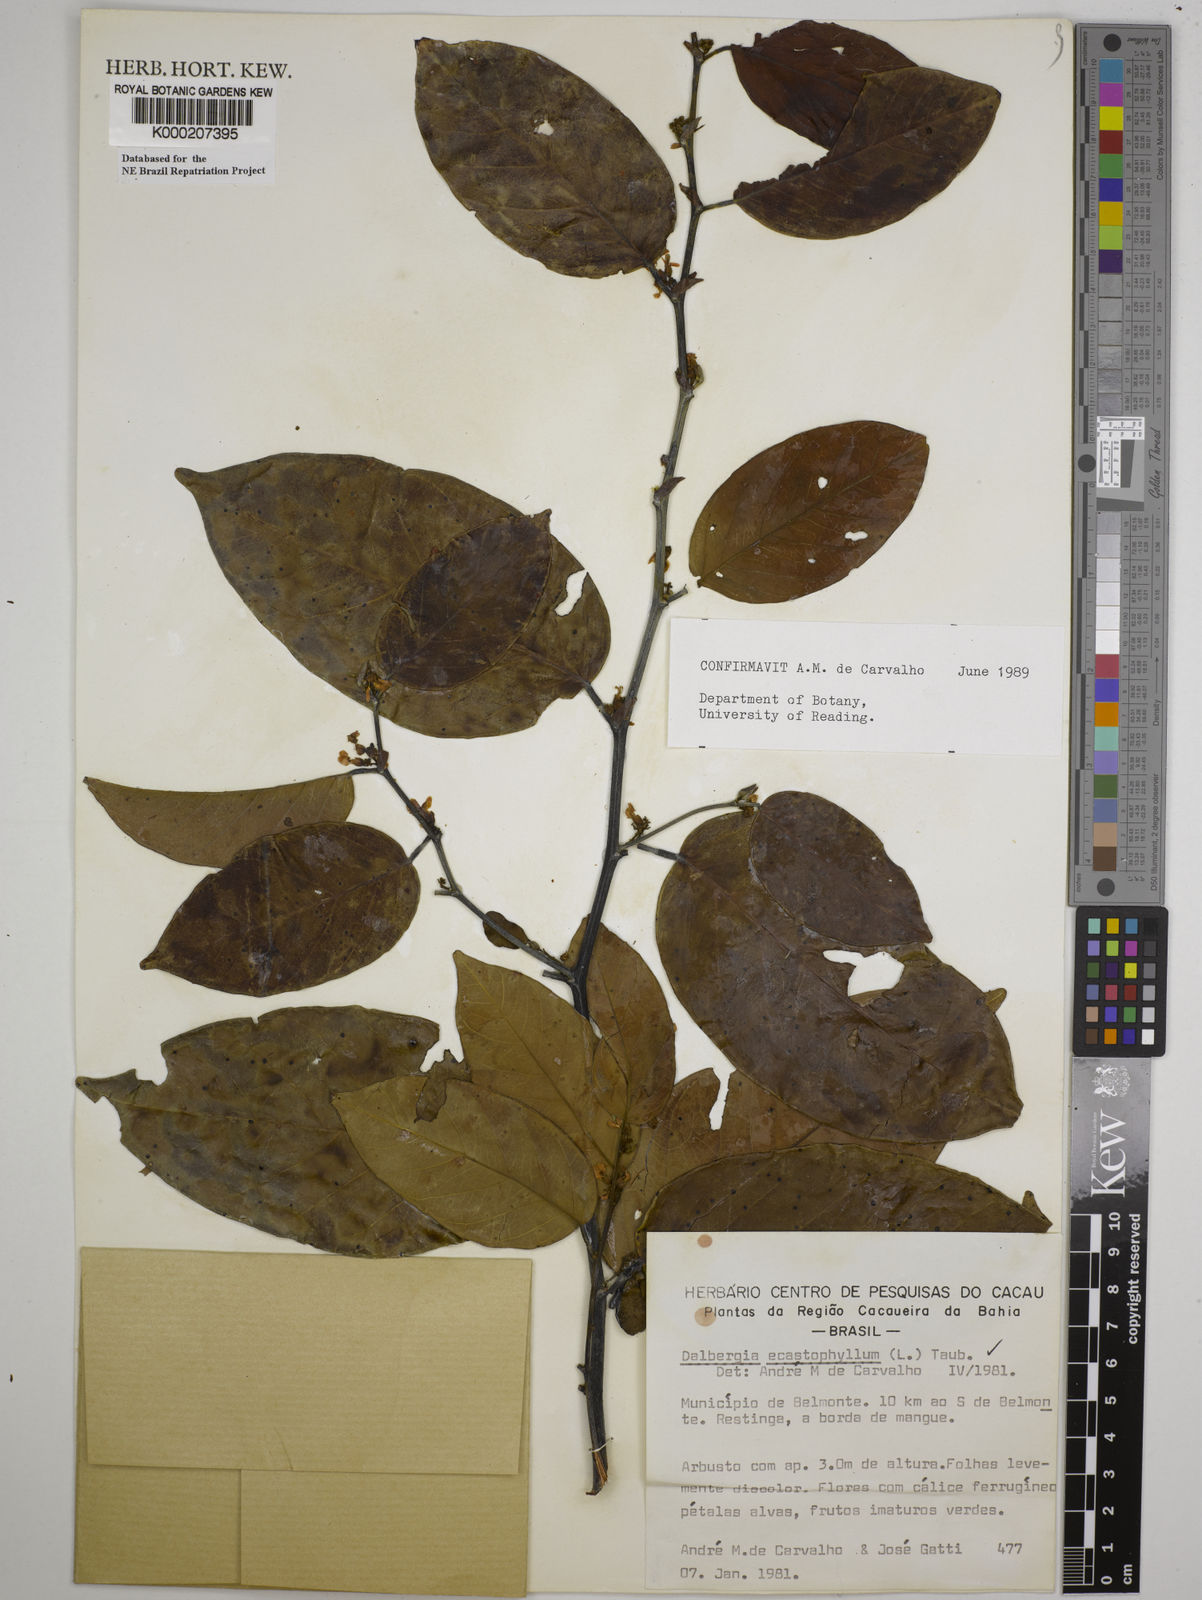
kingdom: Plantae
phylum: Tracheophyta
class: Magnoliopsida
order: Fabales
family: Fabaceae
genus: Dalbergia
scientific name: Dalbergia
